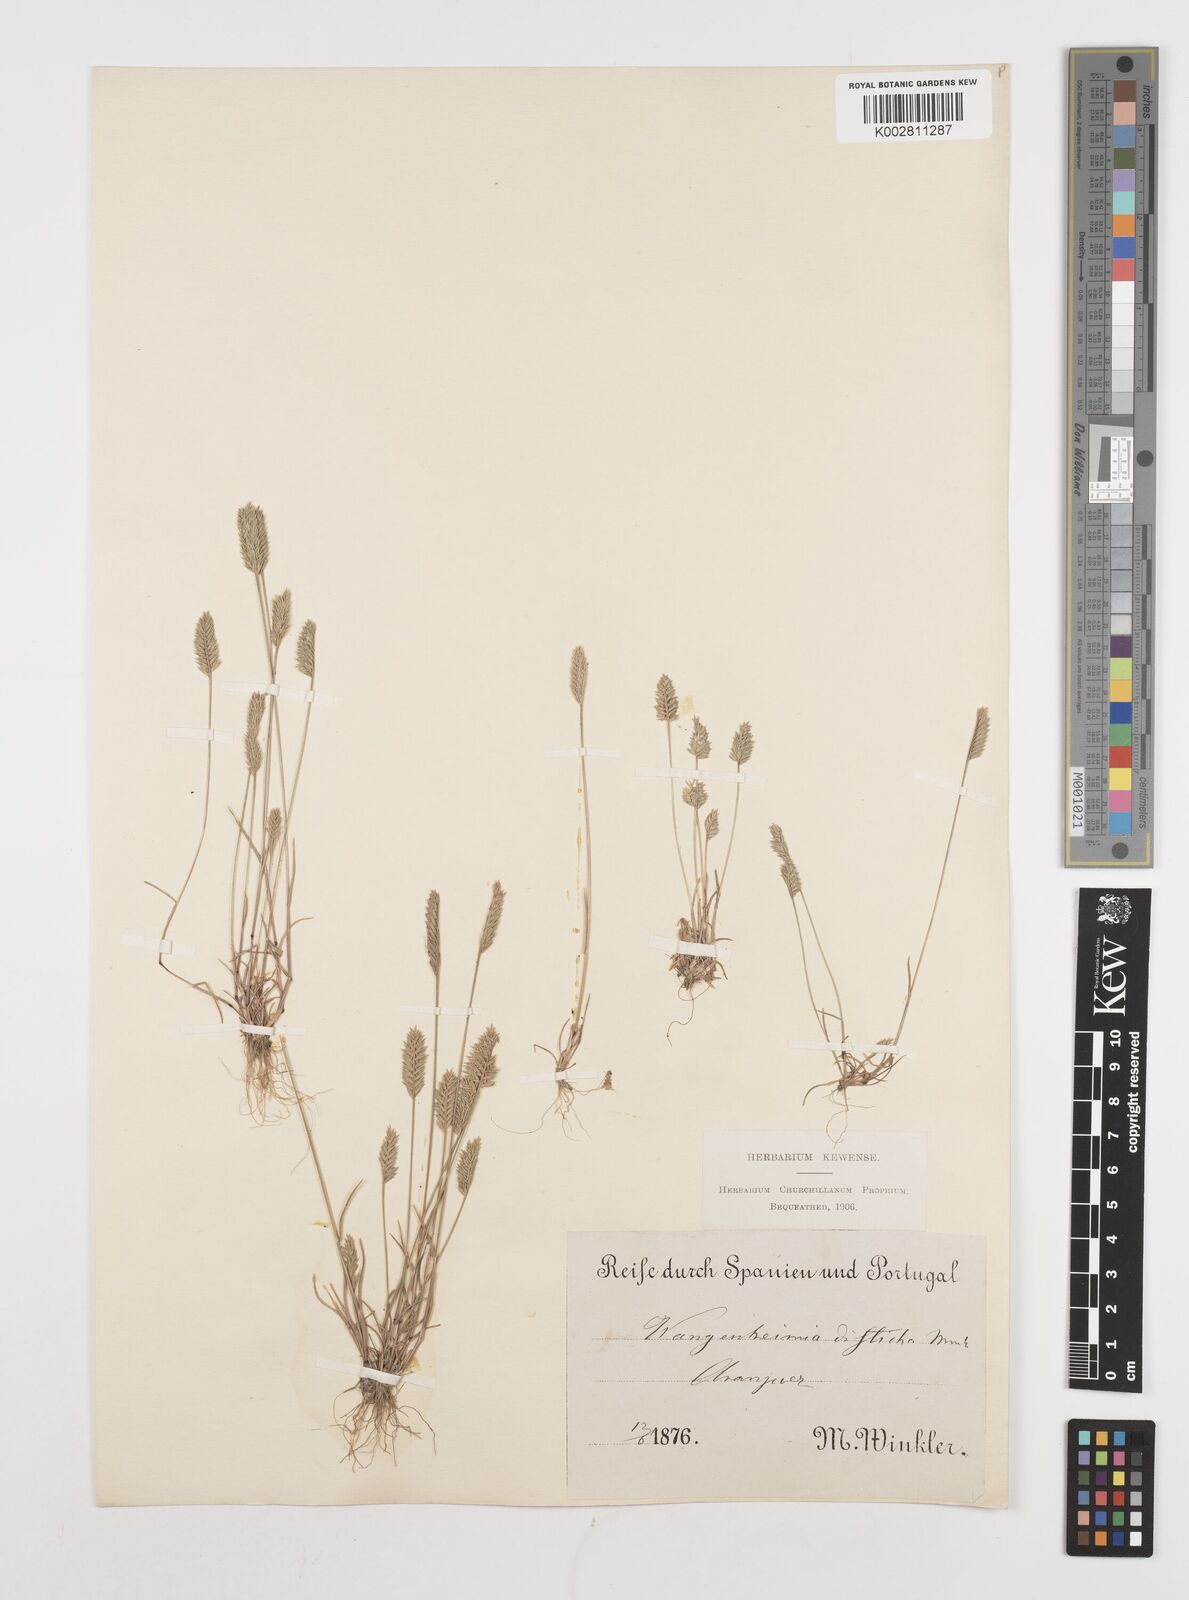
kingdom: Plantae
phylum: Tracheophyta
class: Liliopsida
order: Poales
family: Poaceae
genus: Wangenheimia
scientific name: Wangenheimia lima
